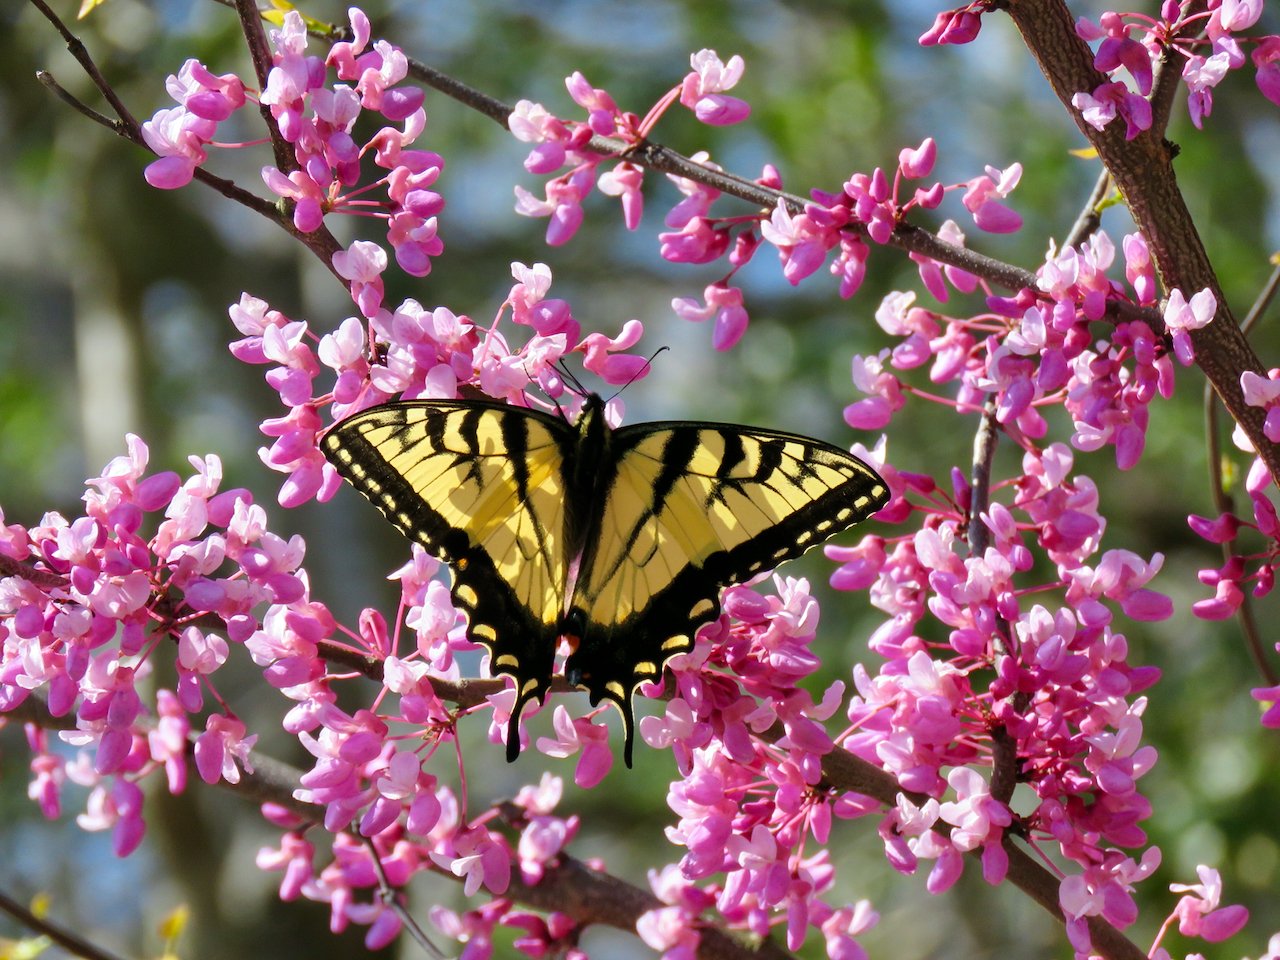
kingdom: Animalia
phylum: Arthropoda
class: Insecta
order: Lepidoptera
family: Papilionidae
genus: Pterourus
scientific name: Pterourus glaucus
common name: Eastern Tiger Swallowtail
